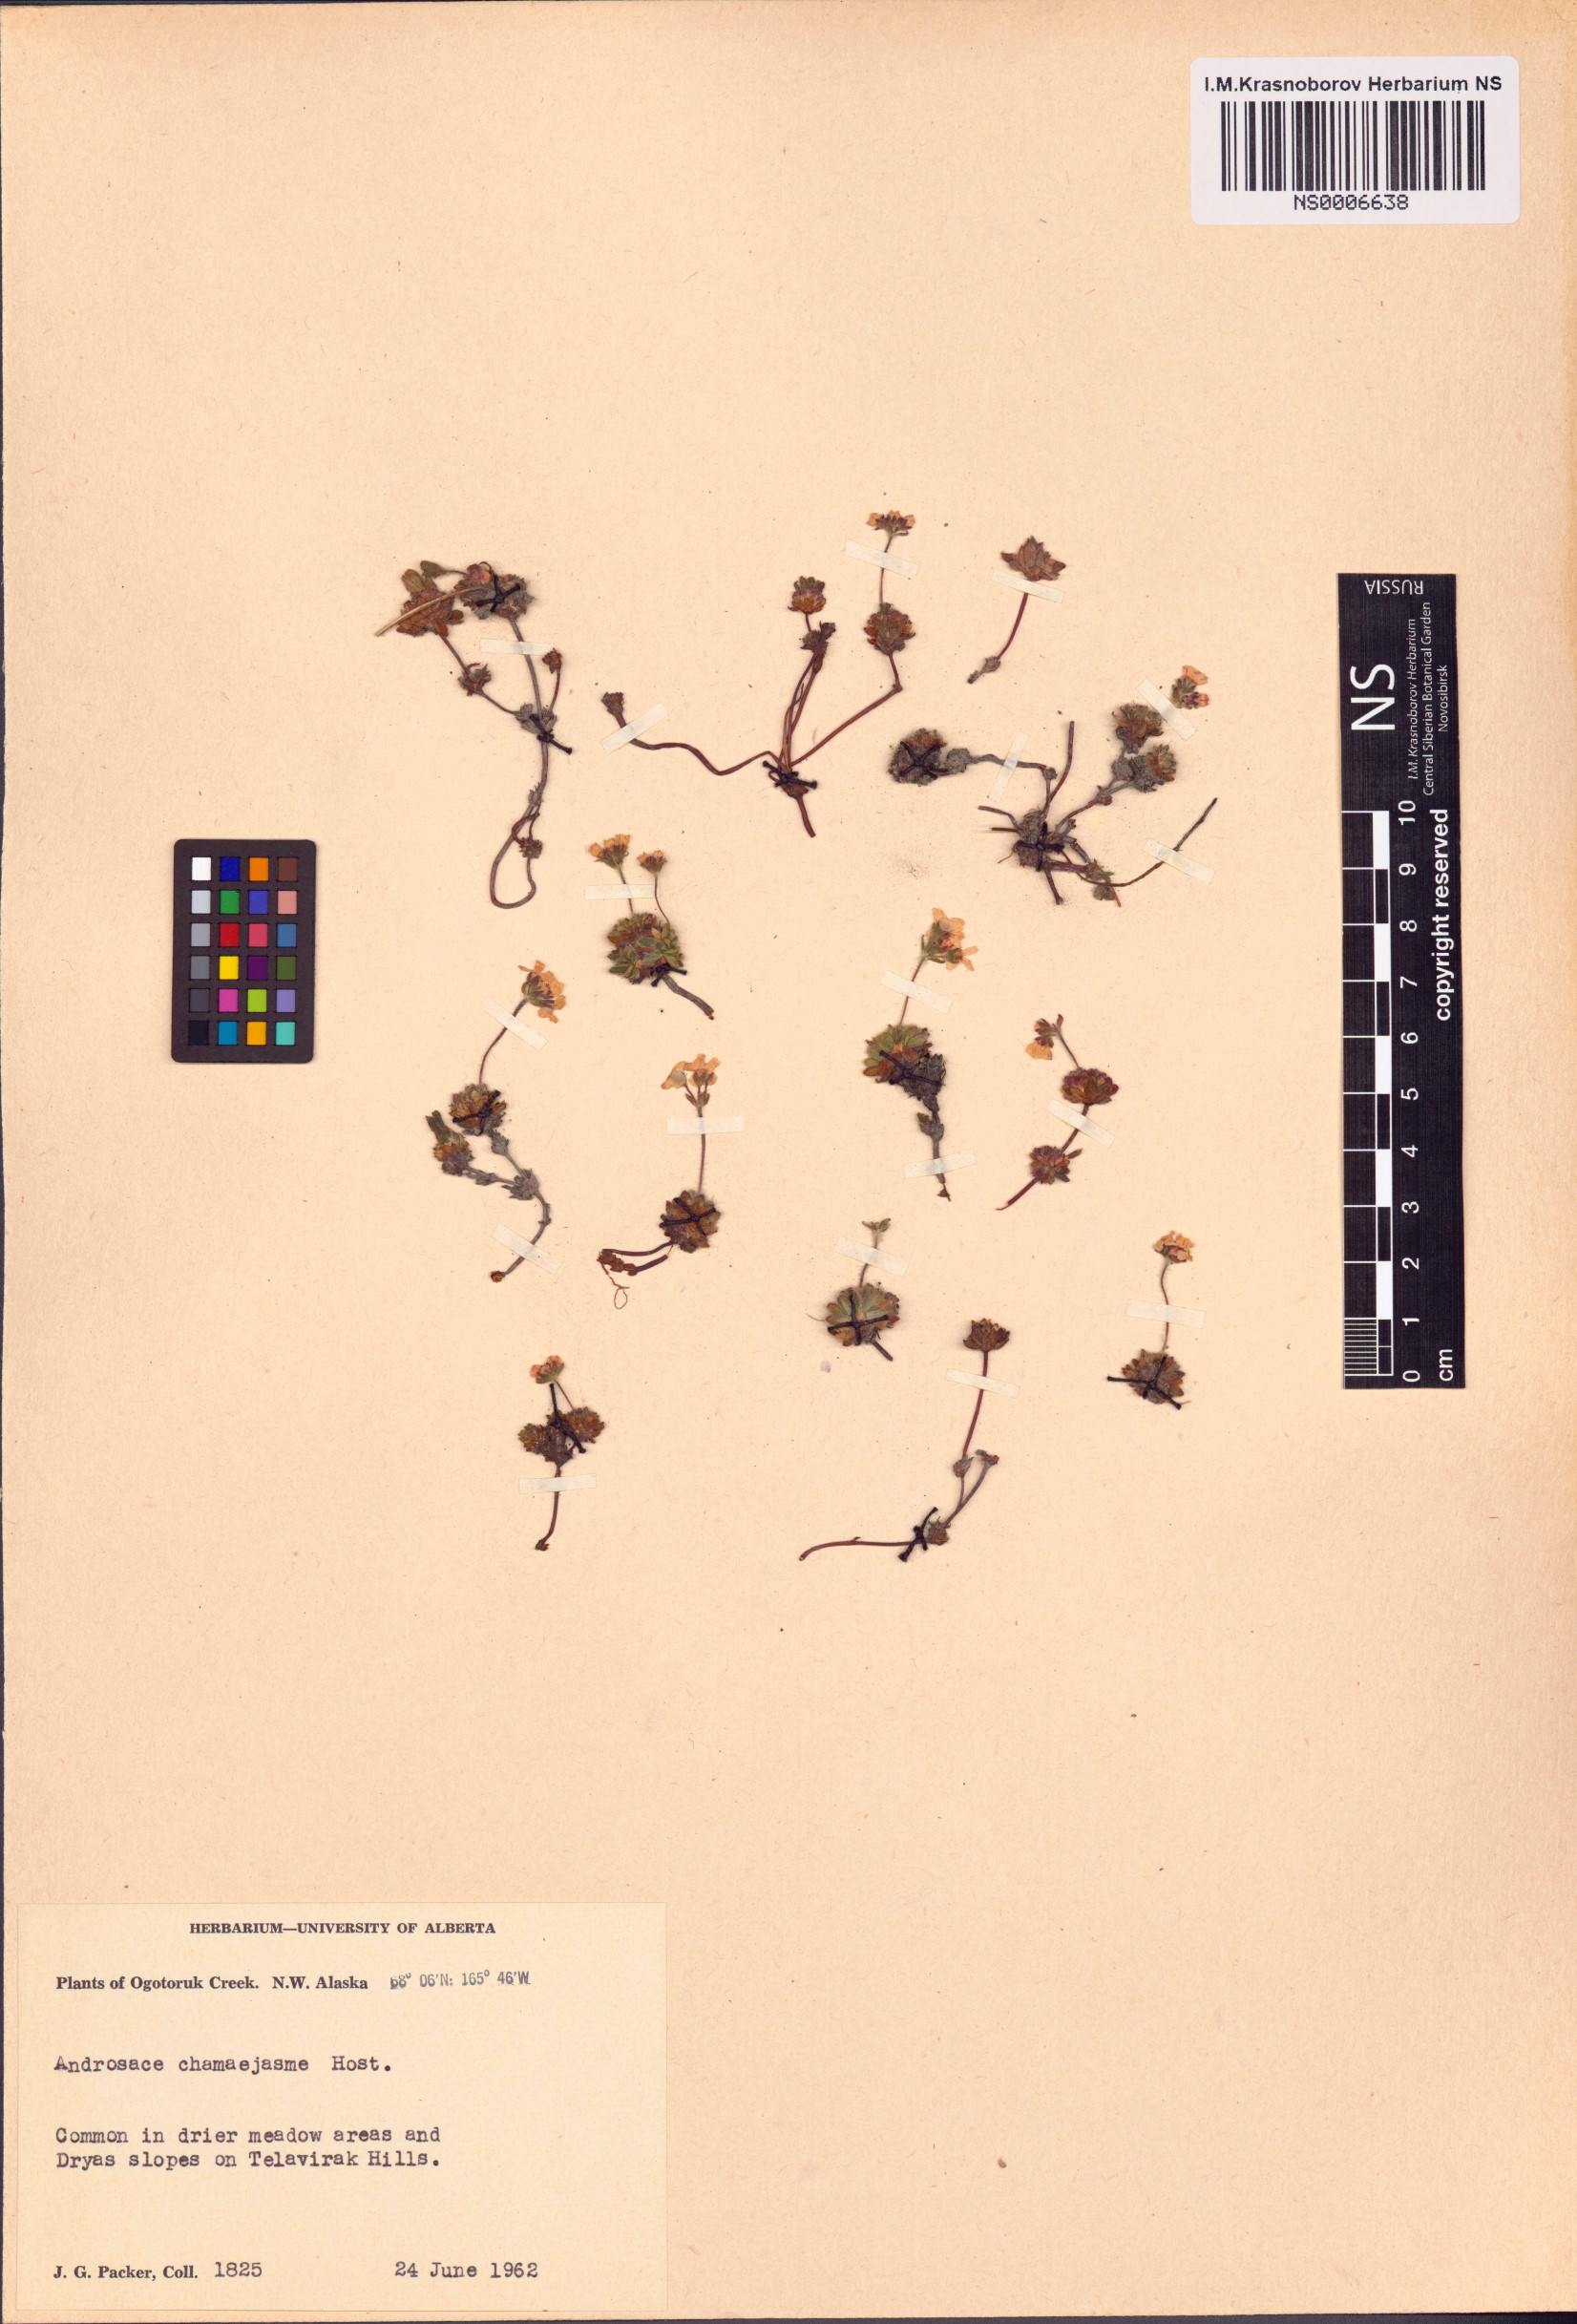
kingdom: Plantae
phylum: Tracheophyta
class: Magnoliopsida
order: Ericales
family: Primulaceae
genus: Androsace
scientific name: Androsace chamaejasme
